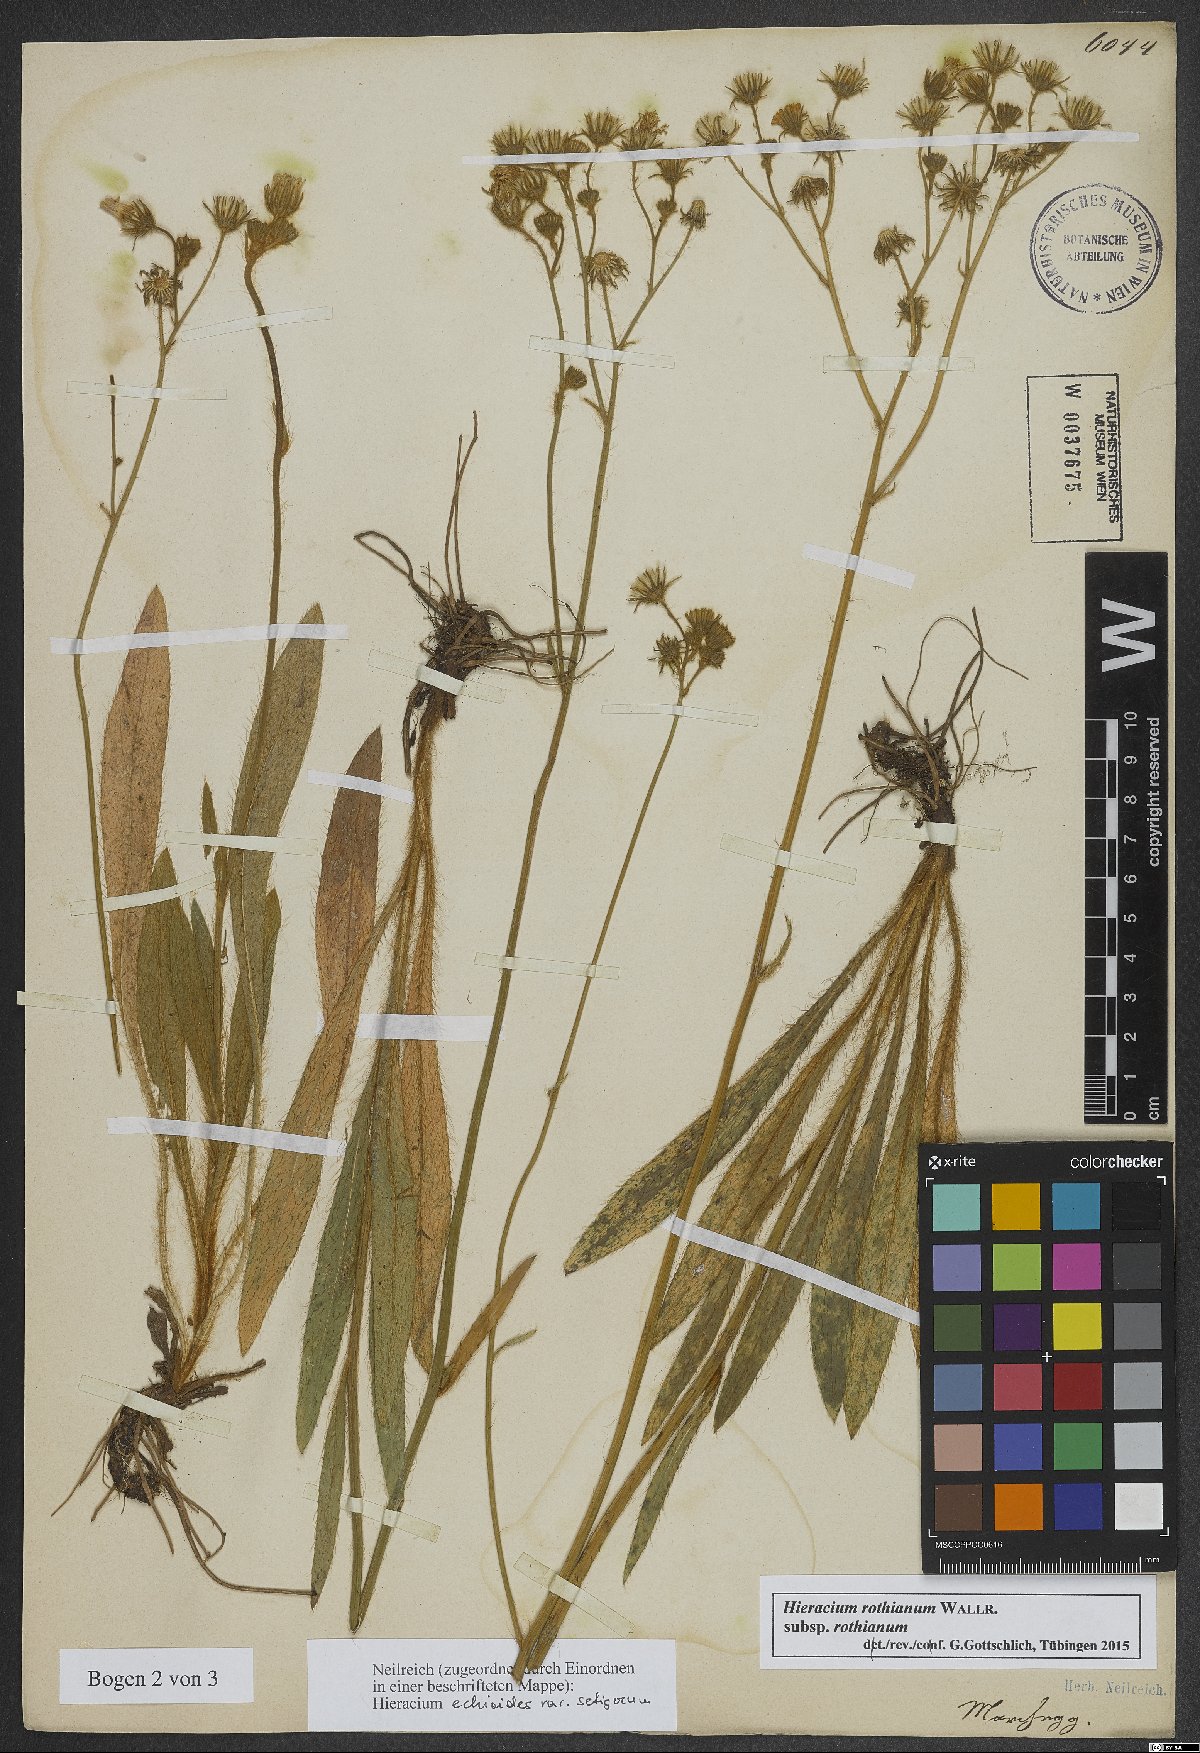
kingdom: Plantae
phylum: Tracheophyta
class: Magnoliopsida
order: Asterales
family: Asteraceae
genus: Pilosella
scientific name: Pilosella rothiana
